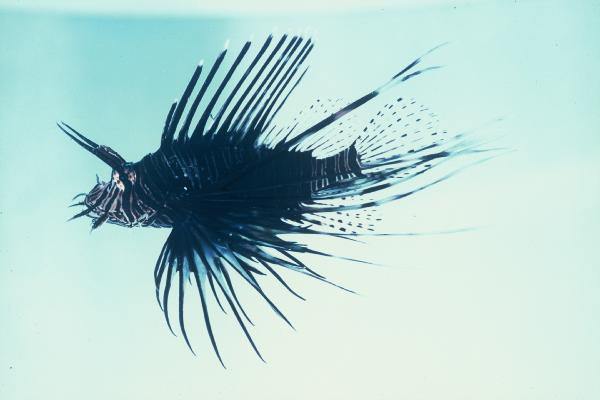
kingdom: Animalia
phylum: Chordata
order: Scorpaeniformes
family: Scorpaenidae
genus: Pterois
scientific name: Pterois miles
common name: Devil firefish
